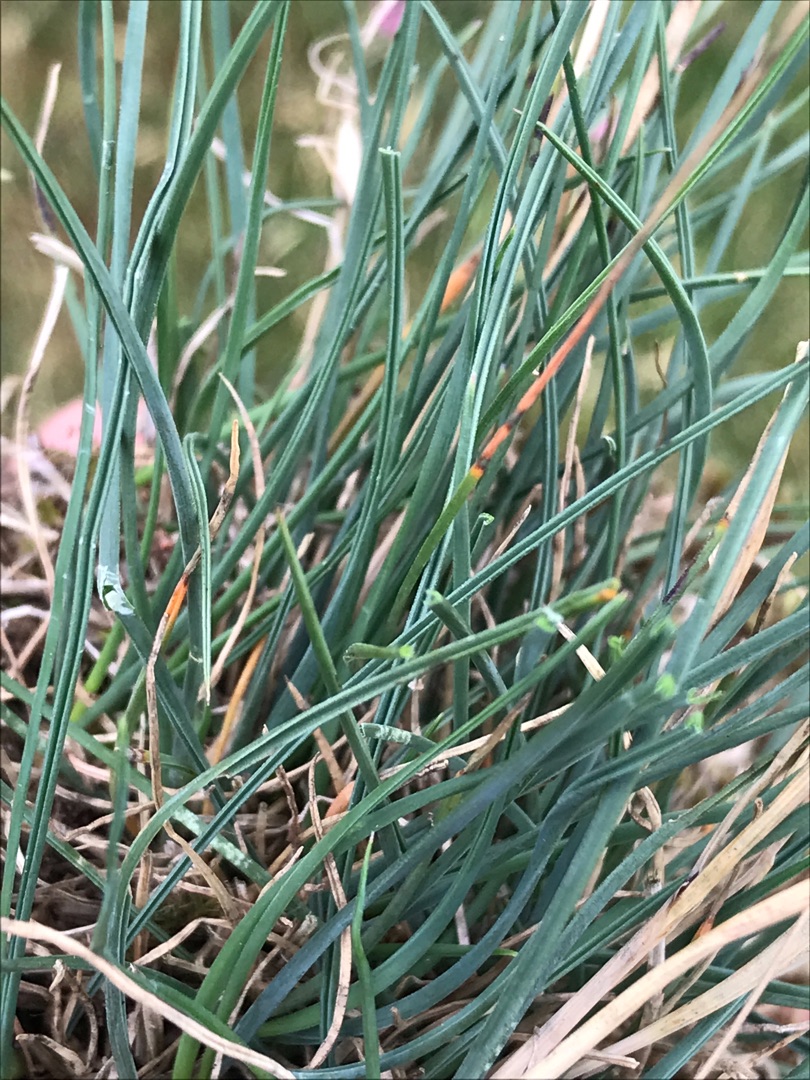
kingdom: Plantae
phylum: Tracheophyta
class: Liliopsida
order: Poales
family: Poaceae
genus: Festuca
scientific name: Festuca trachyphylla
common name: Bakke-svingel
